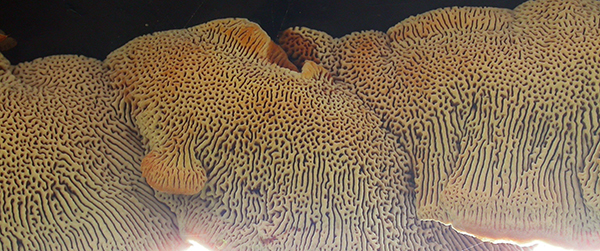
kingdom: Fungi
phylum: Basidiomycota
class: Agaricomycetes
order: Gloeophyllales
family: Gloeophyllaceae
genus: Gloeophyllum
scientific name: Gloeophyllum sepiarium
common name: fyrre-korkhat
